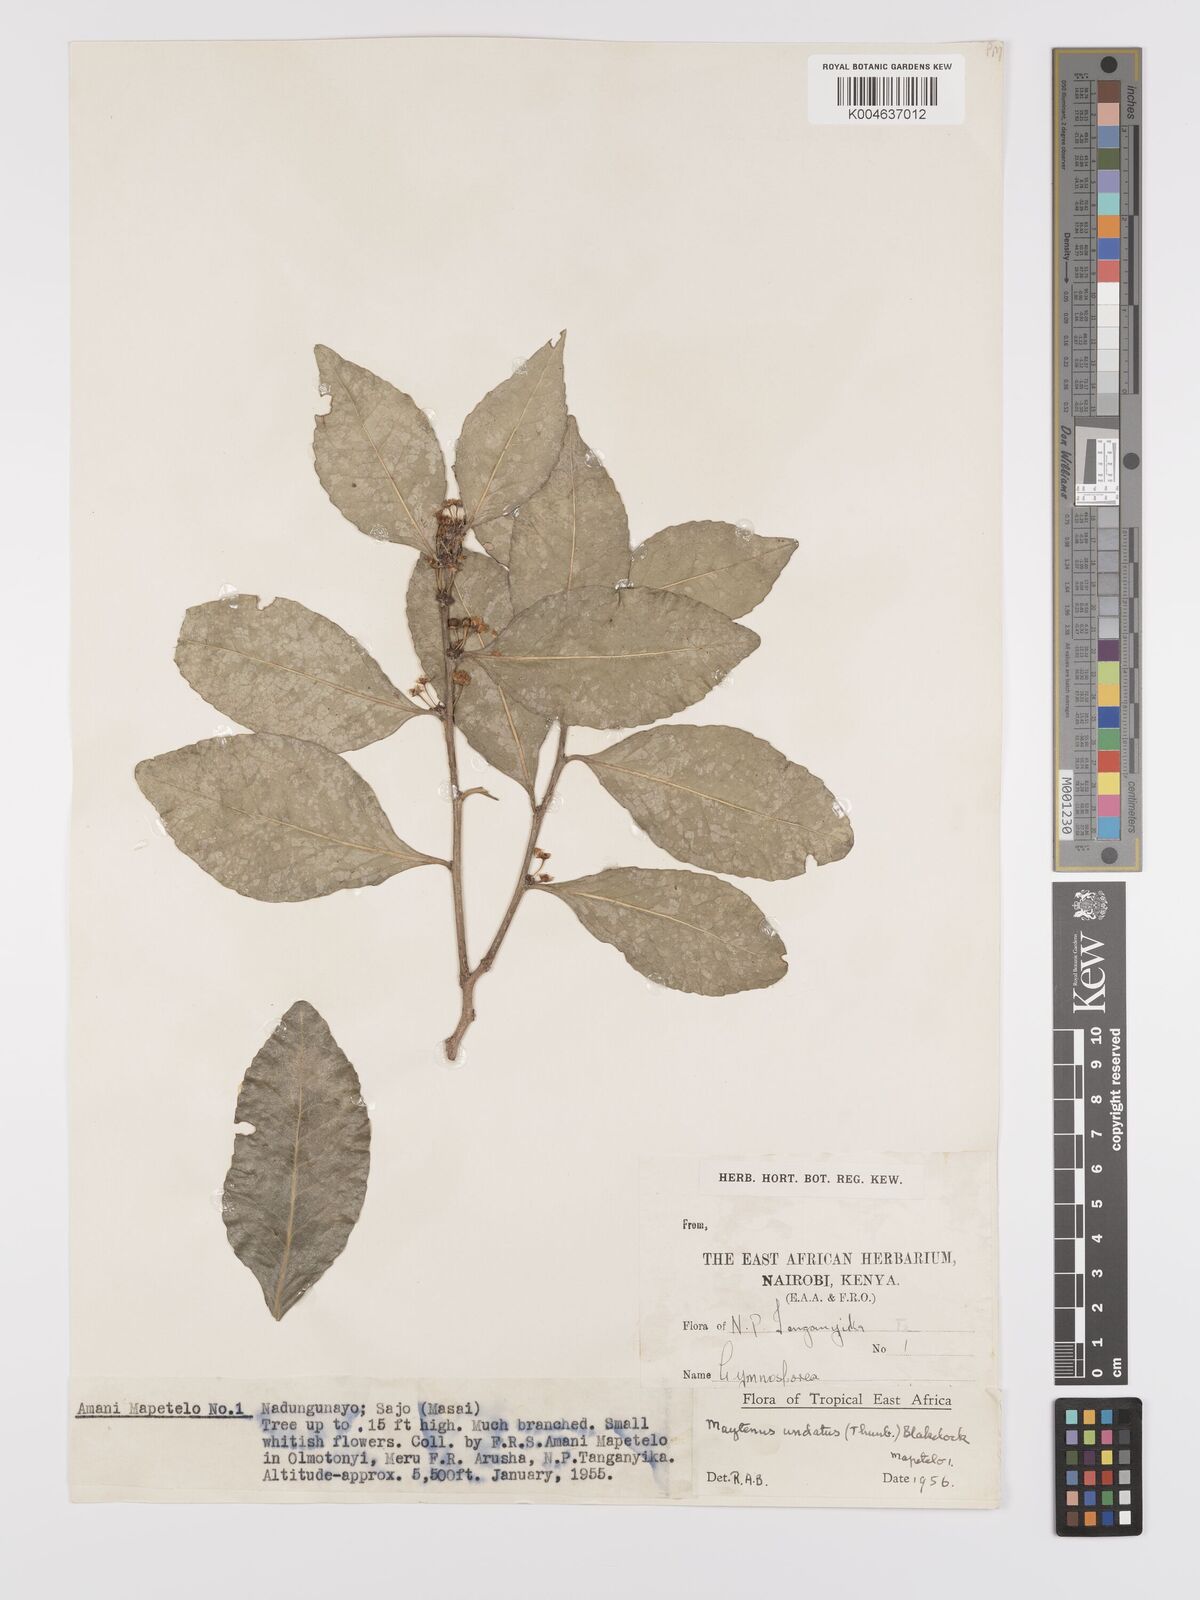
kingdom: Plantae
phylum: Tracheophyta
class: Magnoliopsida
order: Celastrales
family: Celastraceae
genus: Gymnosporia
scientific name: Gymnosporia undata
